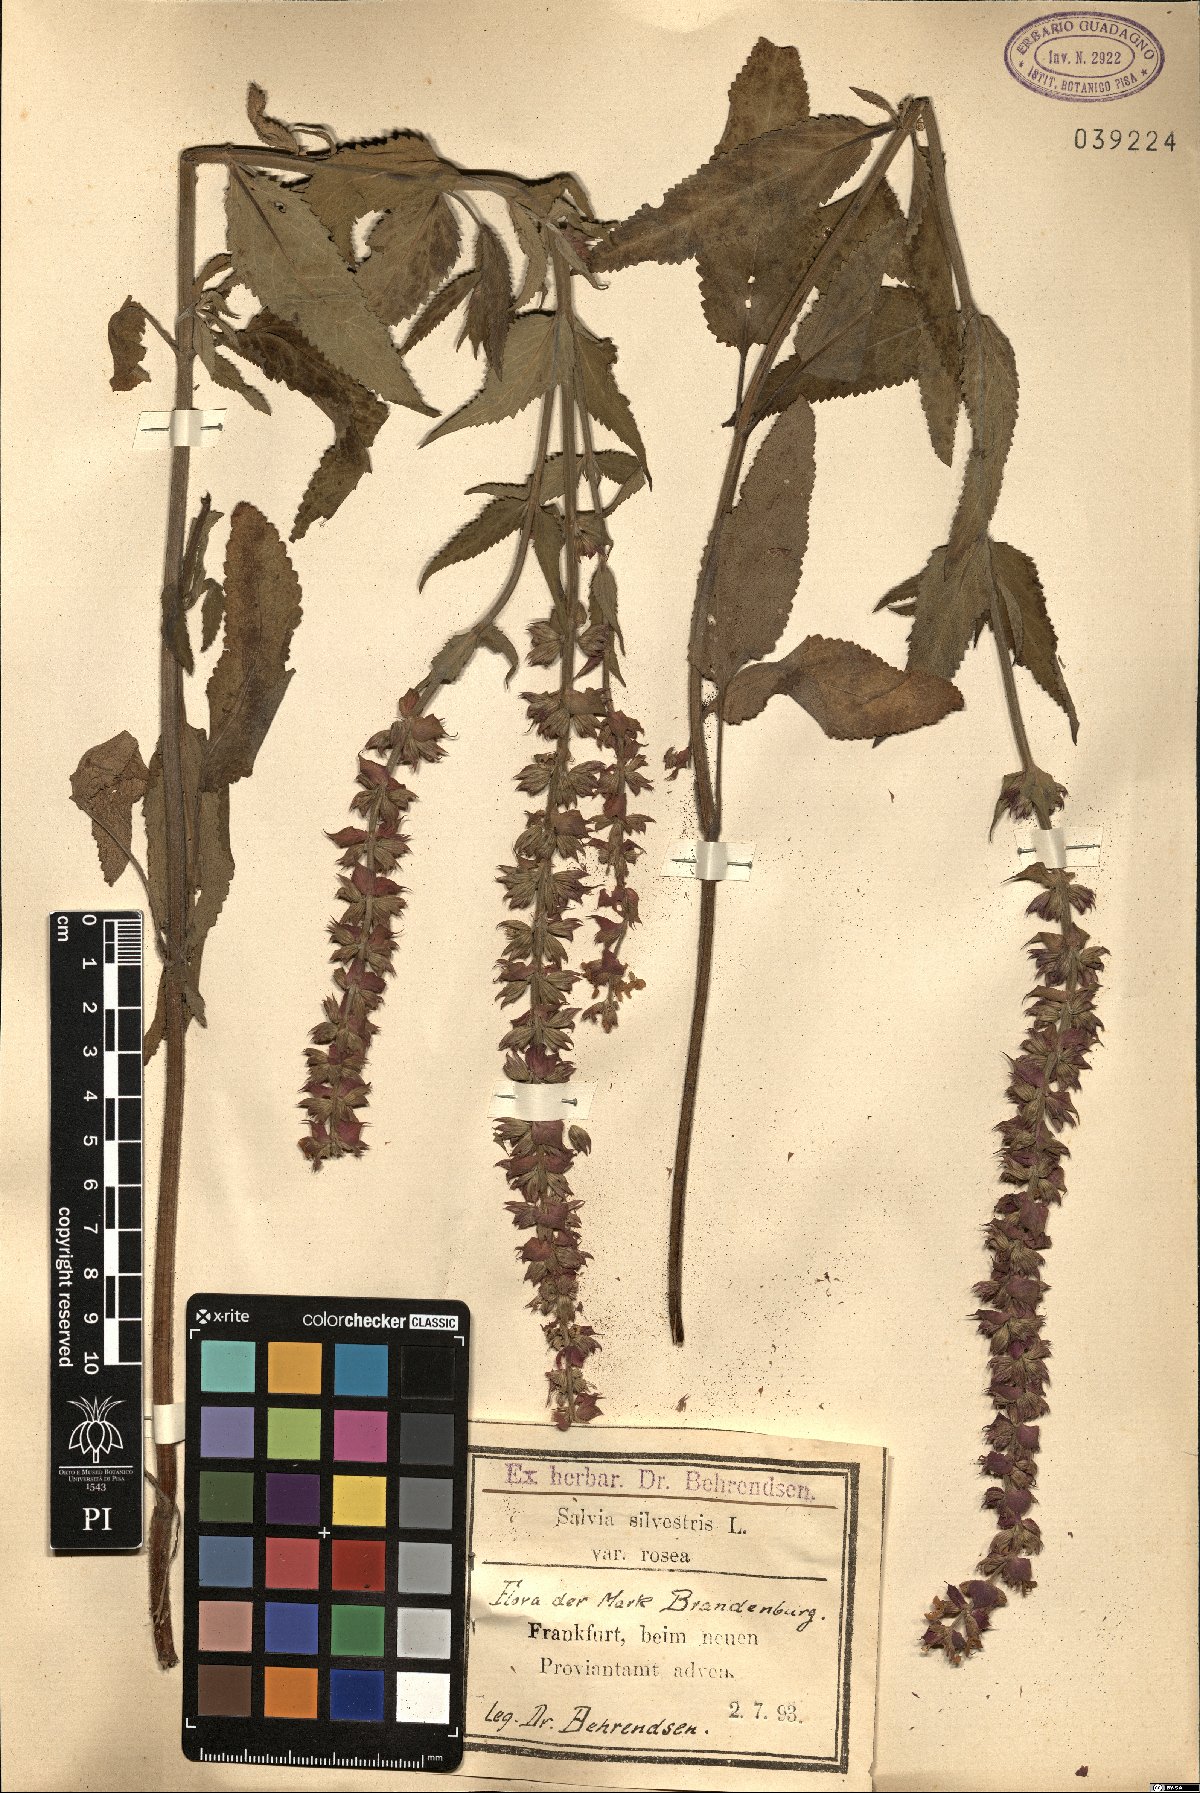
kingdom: Plantae
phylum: Tracheophyta
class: Magnoliopsida
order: Lamiales
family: Lamiaceae
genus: Salvia
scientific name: Salvia sylvestris
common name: Woodland sage
